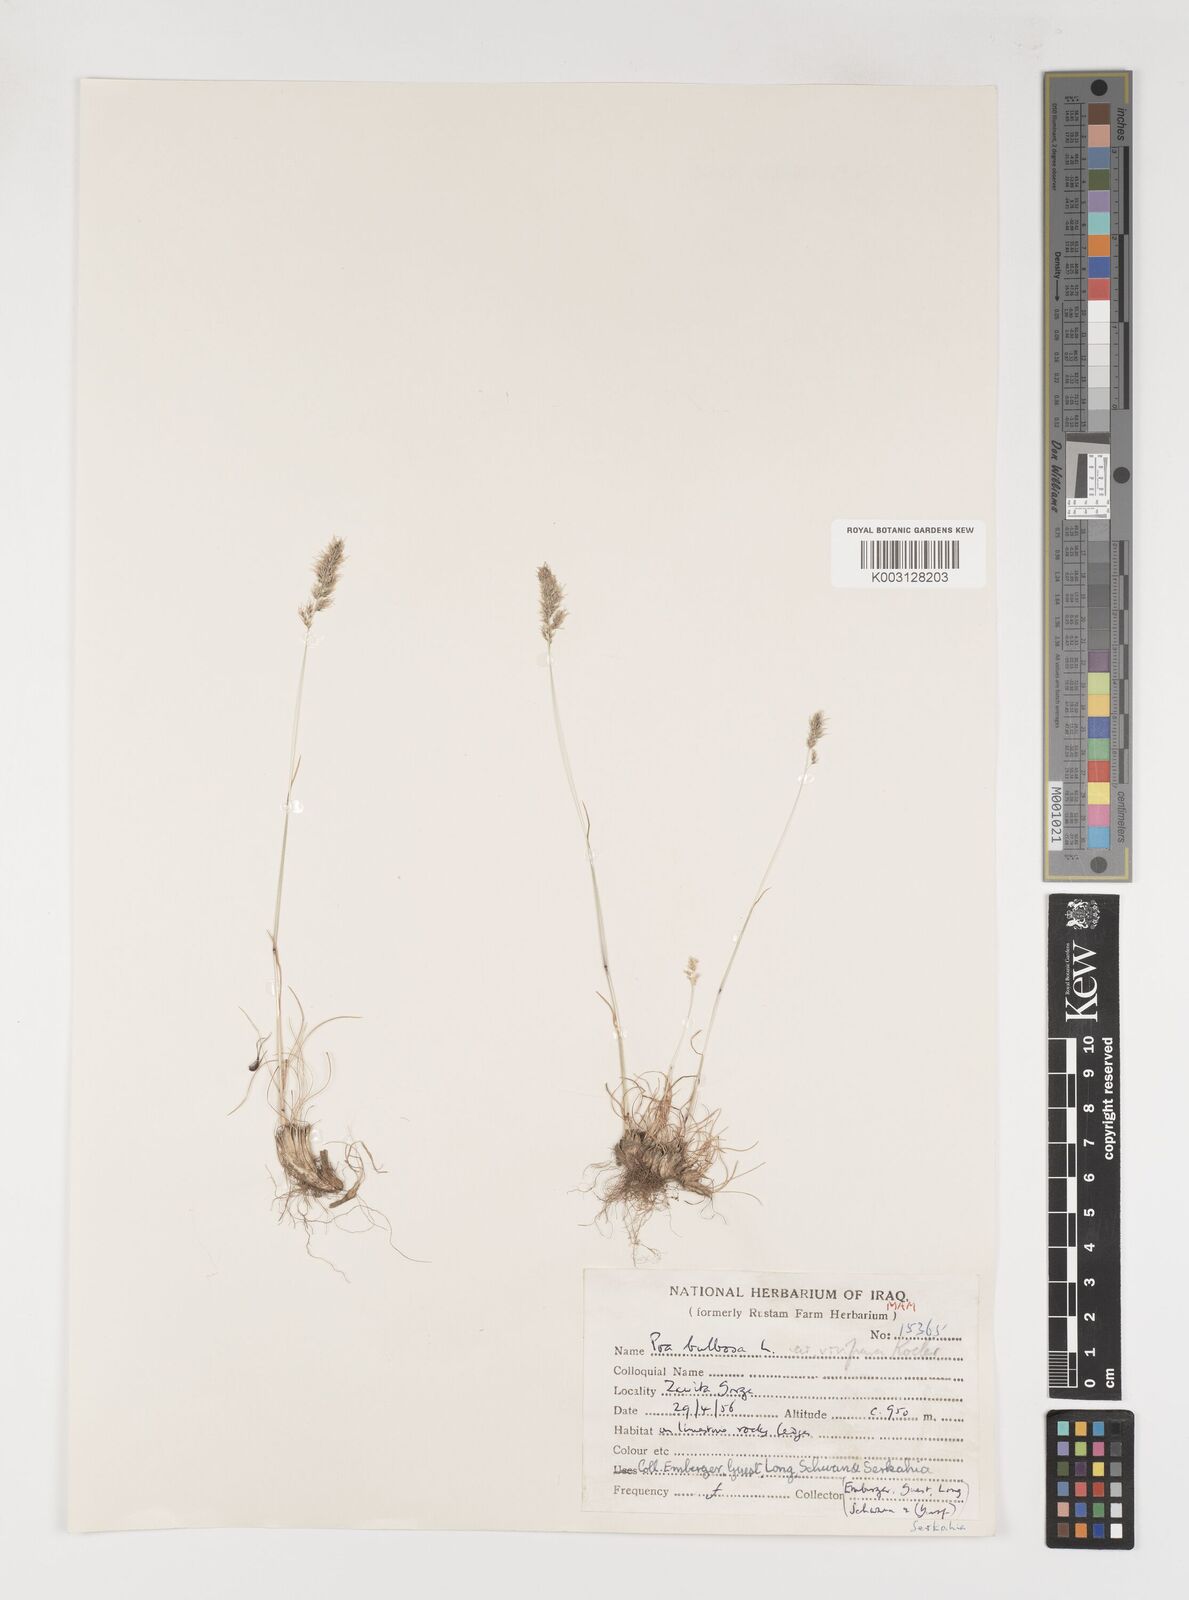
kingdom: Plantae
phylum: Tracheophyta
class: Liliopsida
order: Poales
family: Poaceae
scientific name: Poaceae
